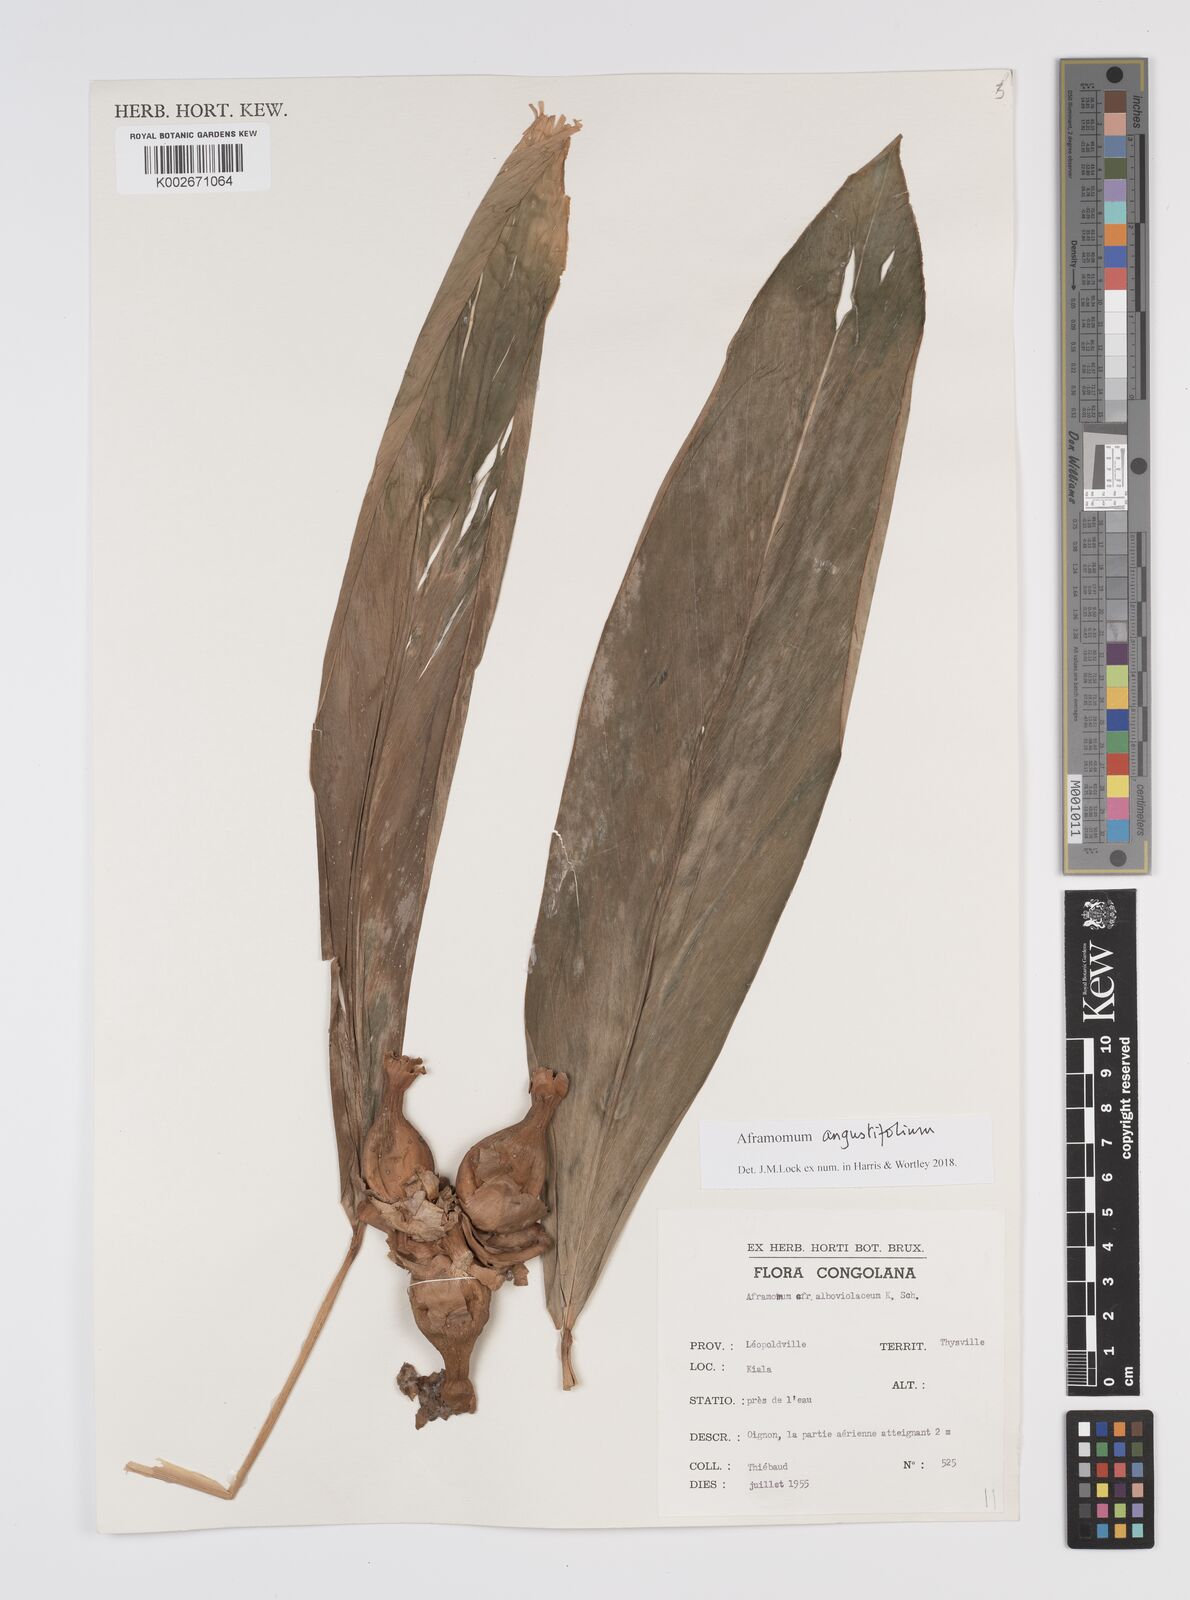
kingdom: Plantae
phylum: Tracheophyta
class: Liliopsida
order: Zingiberales
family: Zingiberaceae
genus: Aframomum
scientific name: Aframomum angustifolium
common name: Guinea grains
